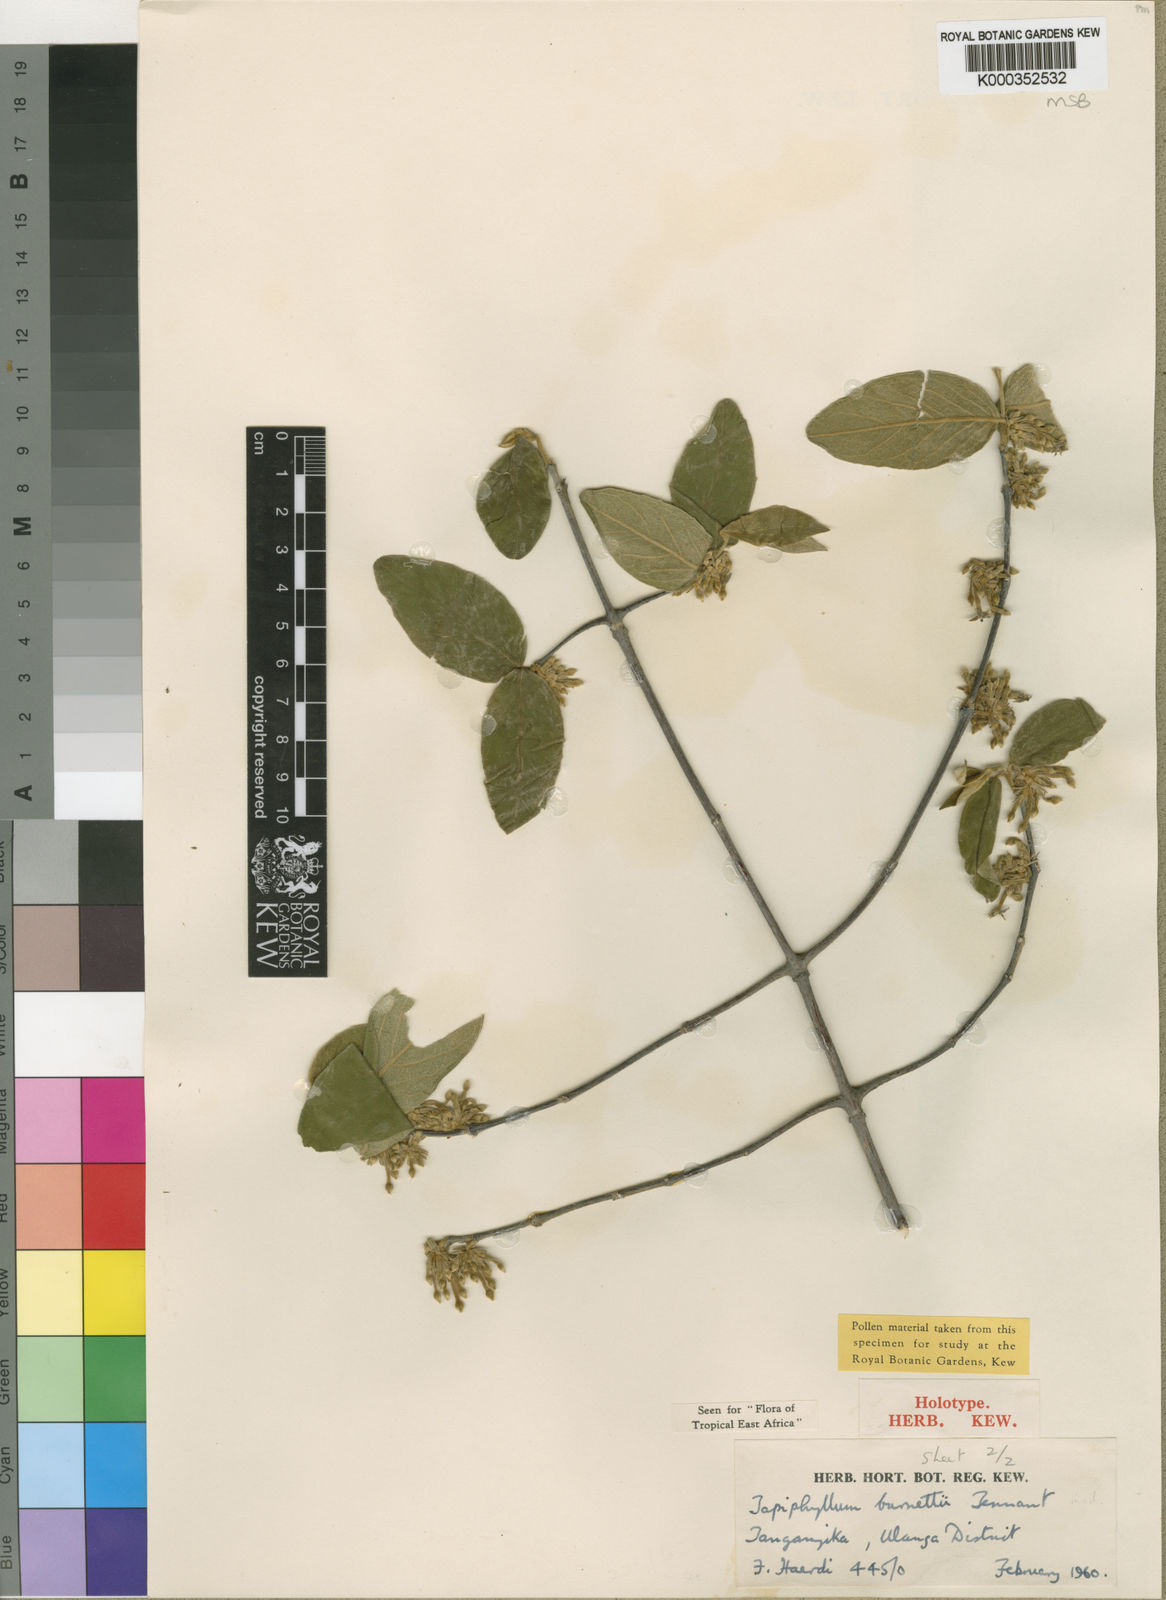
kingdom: Plantae
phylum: Tracheophyta
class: Magnoliopsida
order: Gentianales
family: Rubiaceae
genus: Vangueria
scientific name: Vangueria burnettii
